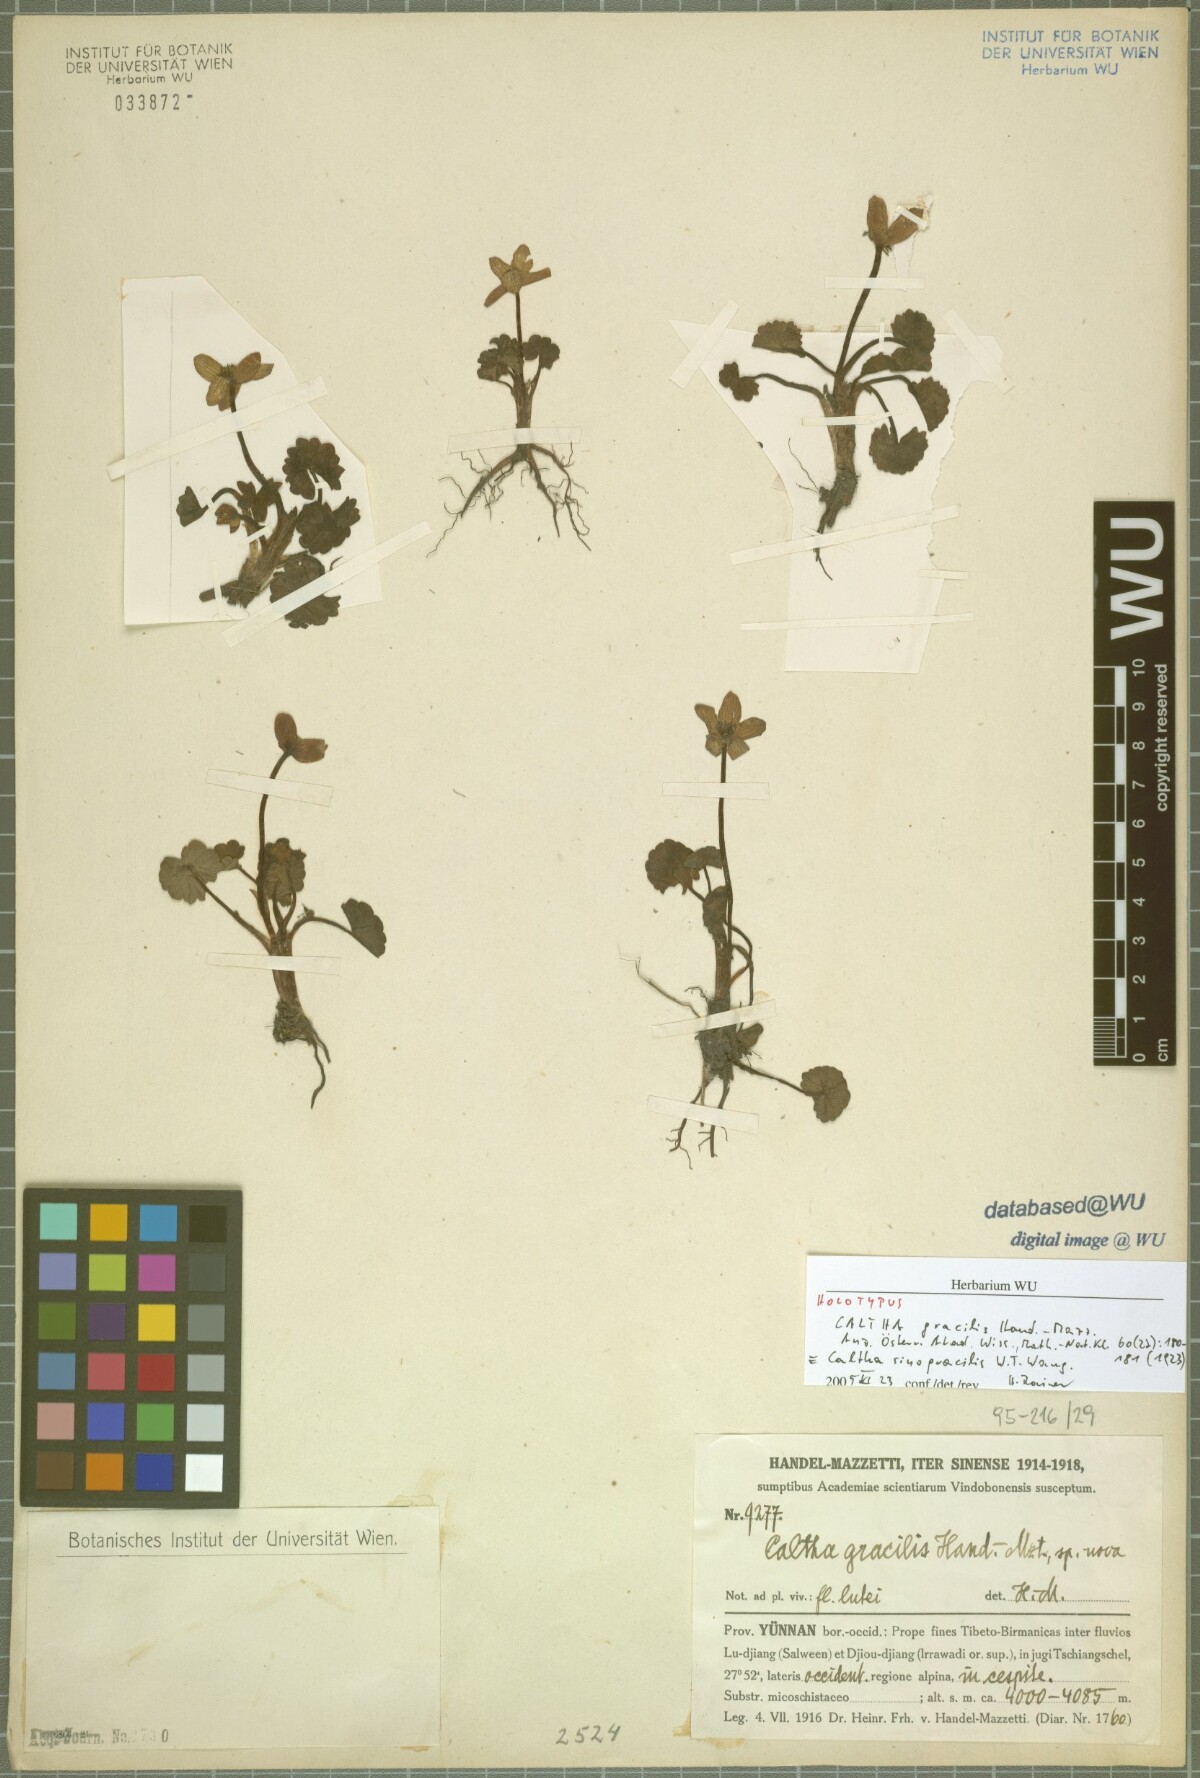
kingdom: Plantae
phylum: Tracheophyta
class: Magnoliopsida
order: Ranunculales
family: Ranunculaceae
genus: Caltha
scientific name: Caltha sinogracilis
